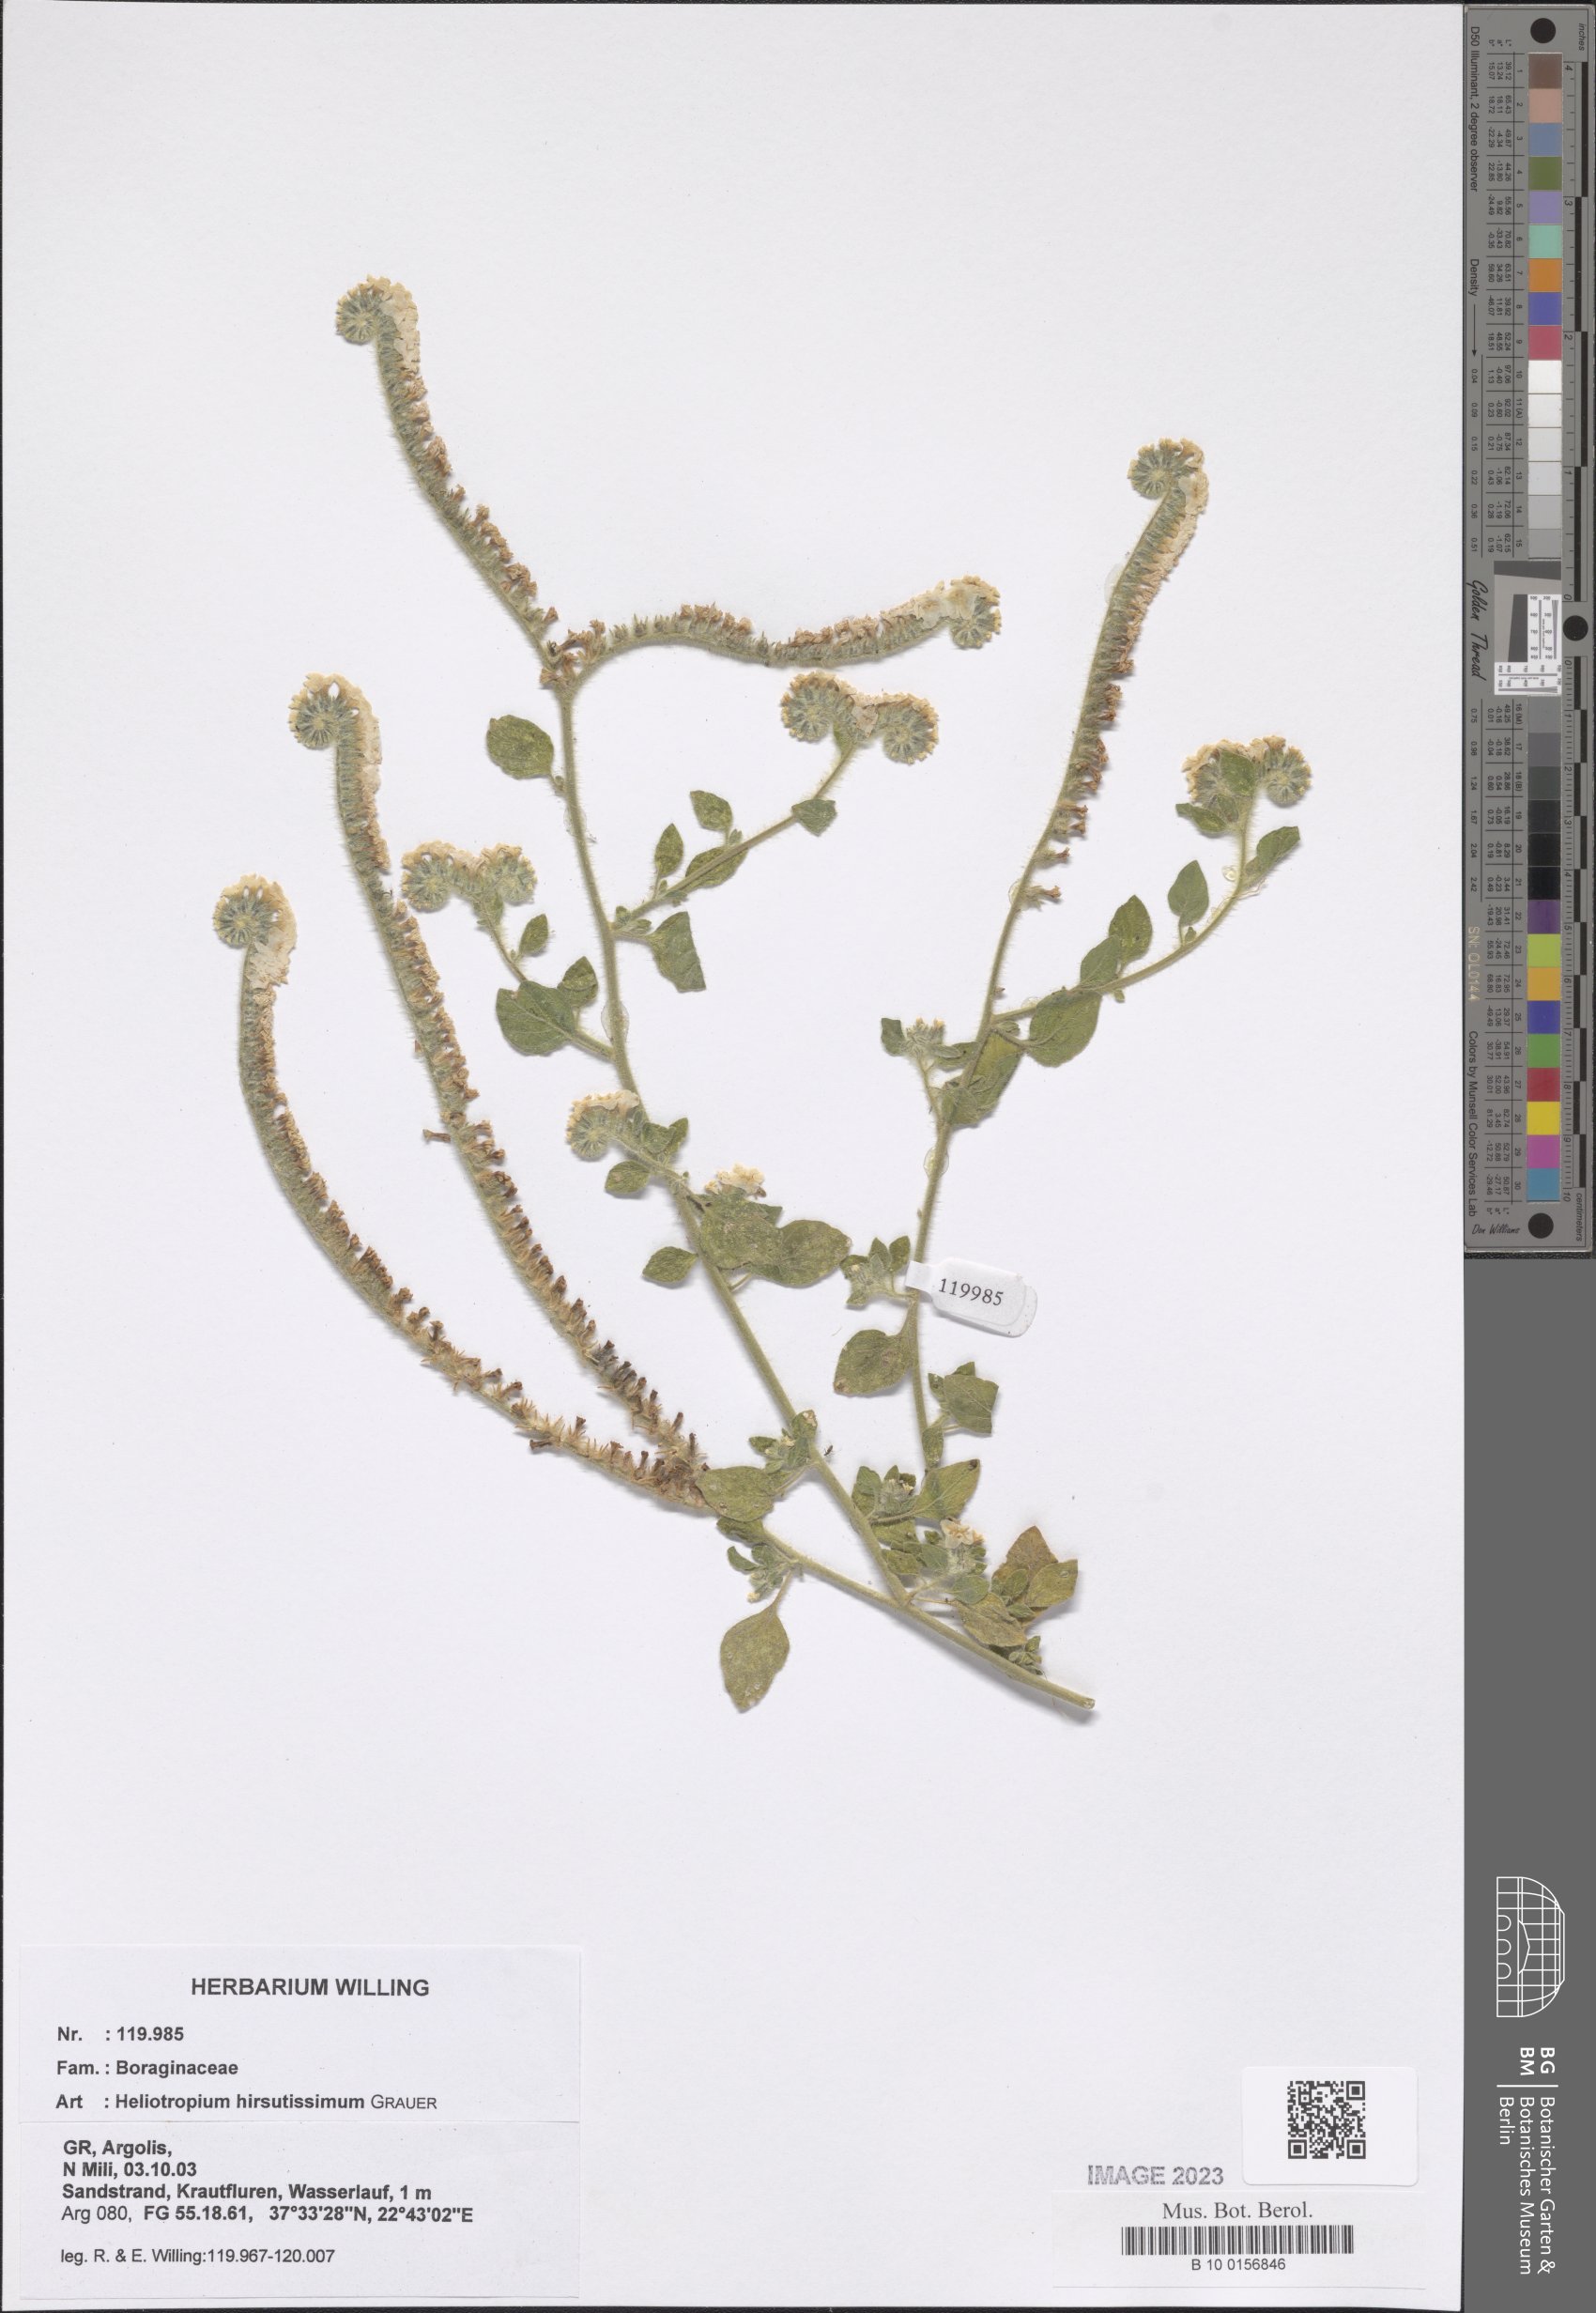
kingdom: Plantae
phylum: Tracheophyta
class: Magnoliopsida
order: Boraginales
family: Heliotropiaceae
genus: Heliotropium
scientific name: Heliotropium hirsutissimum
